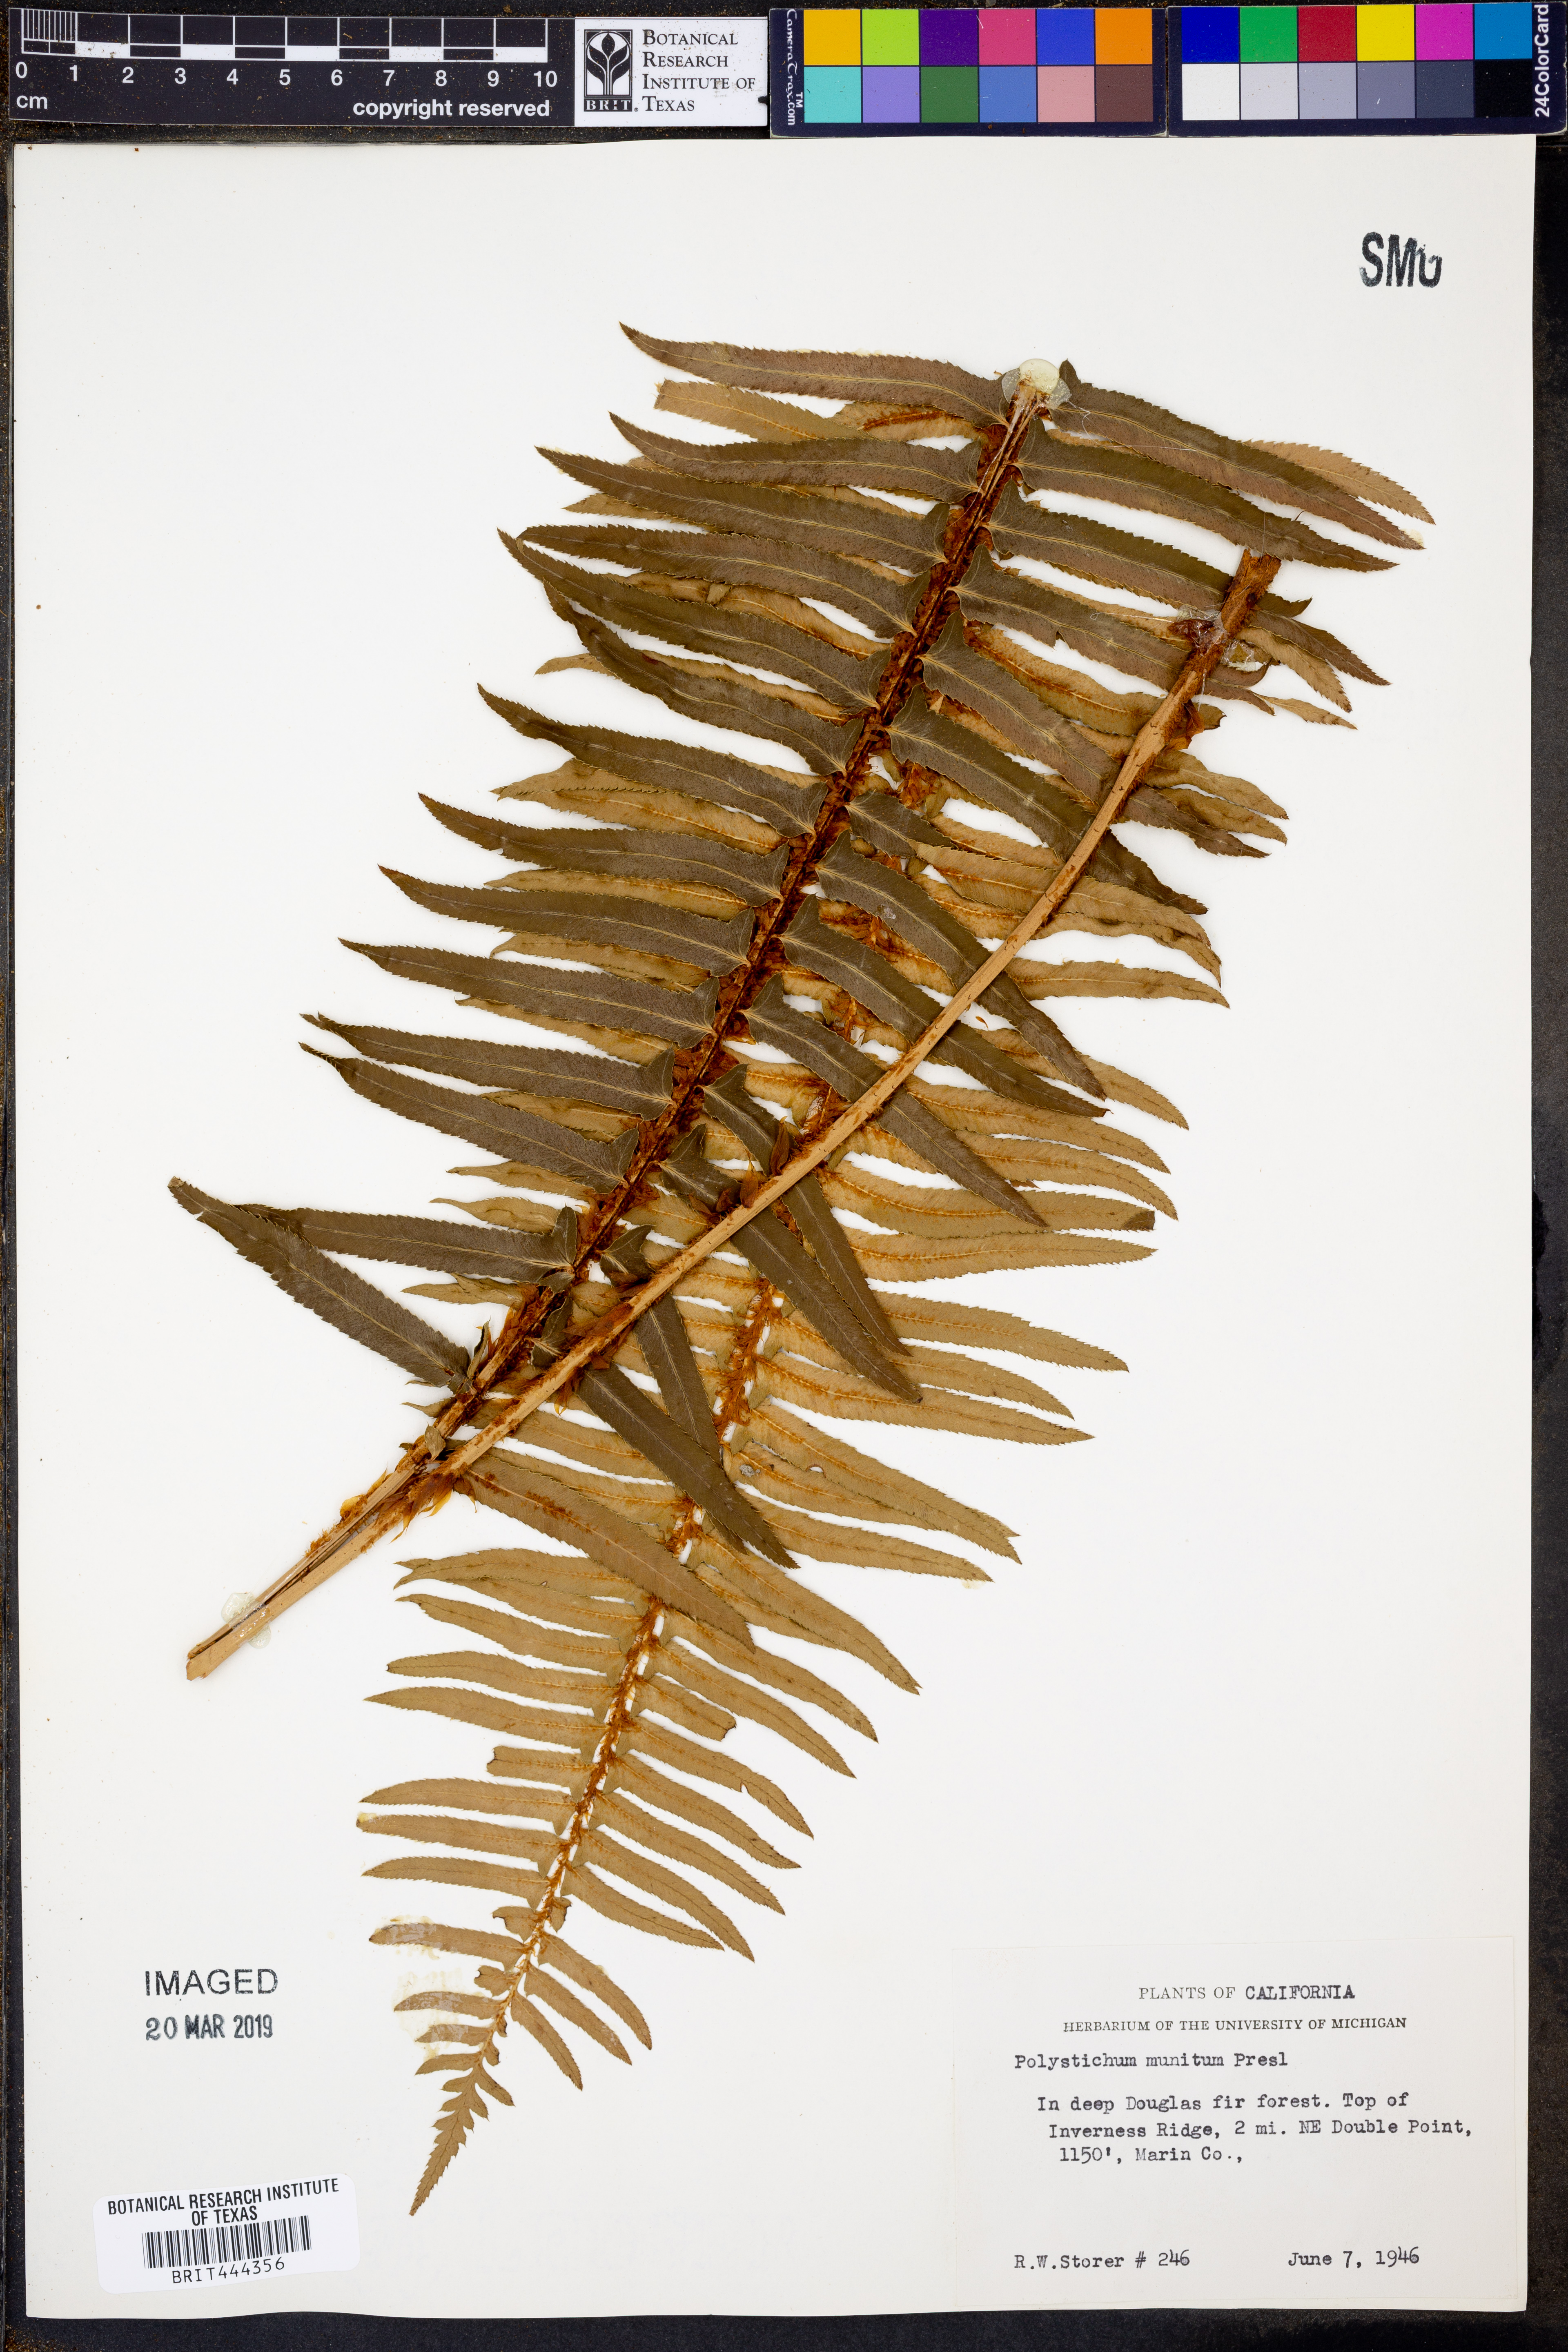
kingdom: Plantae
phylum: Tracheophyta
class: Polypodiopsida
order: Polypodiales
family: Dryopteridaceae
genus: Polystichum
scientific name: Polystichum munitum
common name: Western sword-fern
